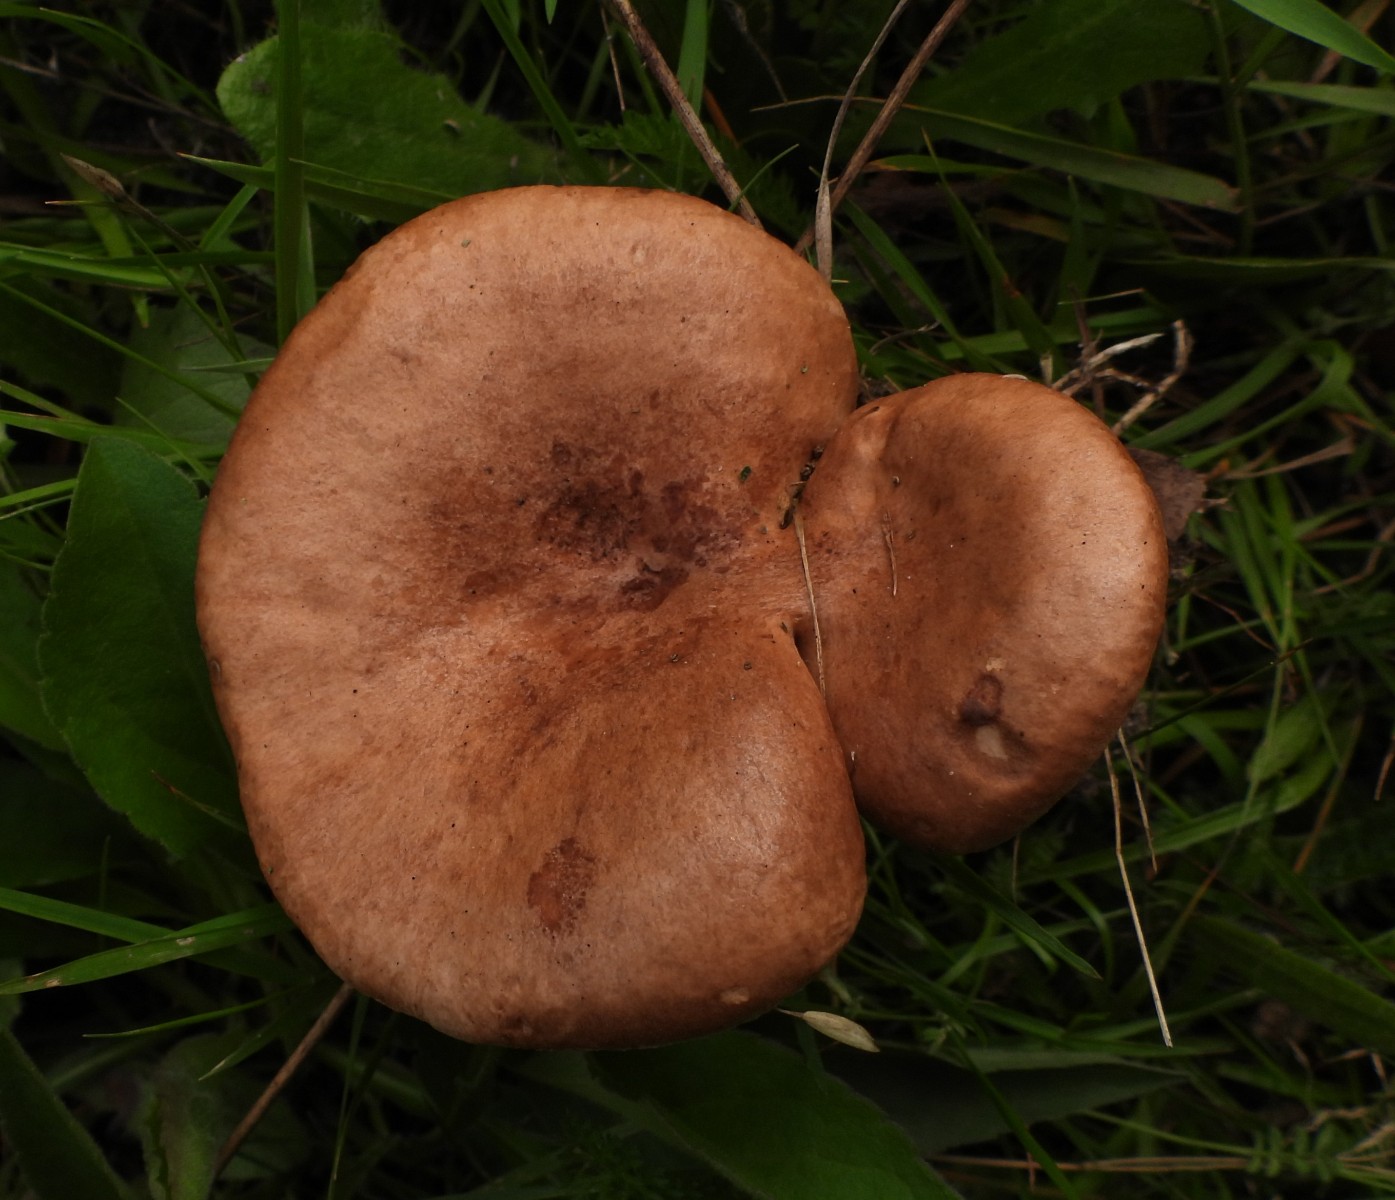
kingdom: Fungi
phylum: Basidiomycota
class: Agaricomycetes
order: Russulales
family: Russulaceae
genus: Lactarius
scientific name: Lactarius quietus
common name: ege-mælkehat
